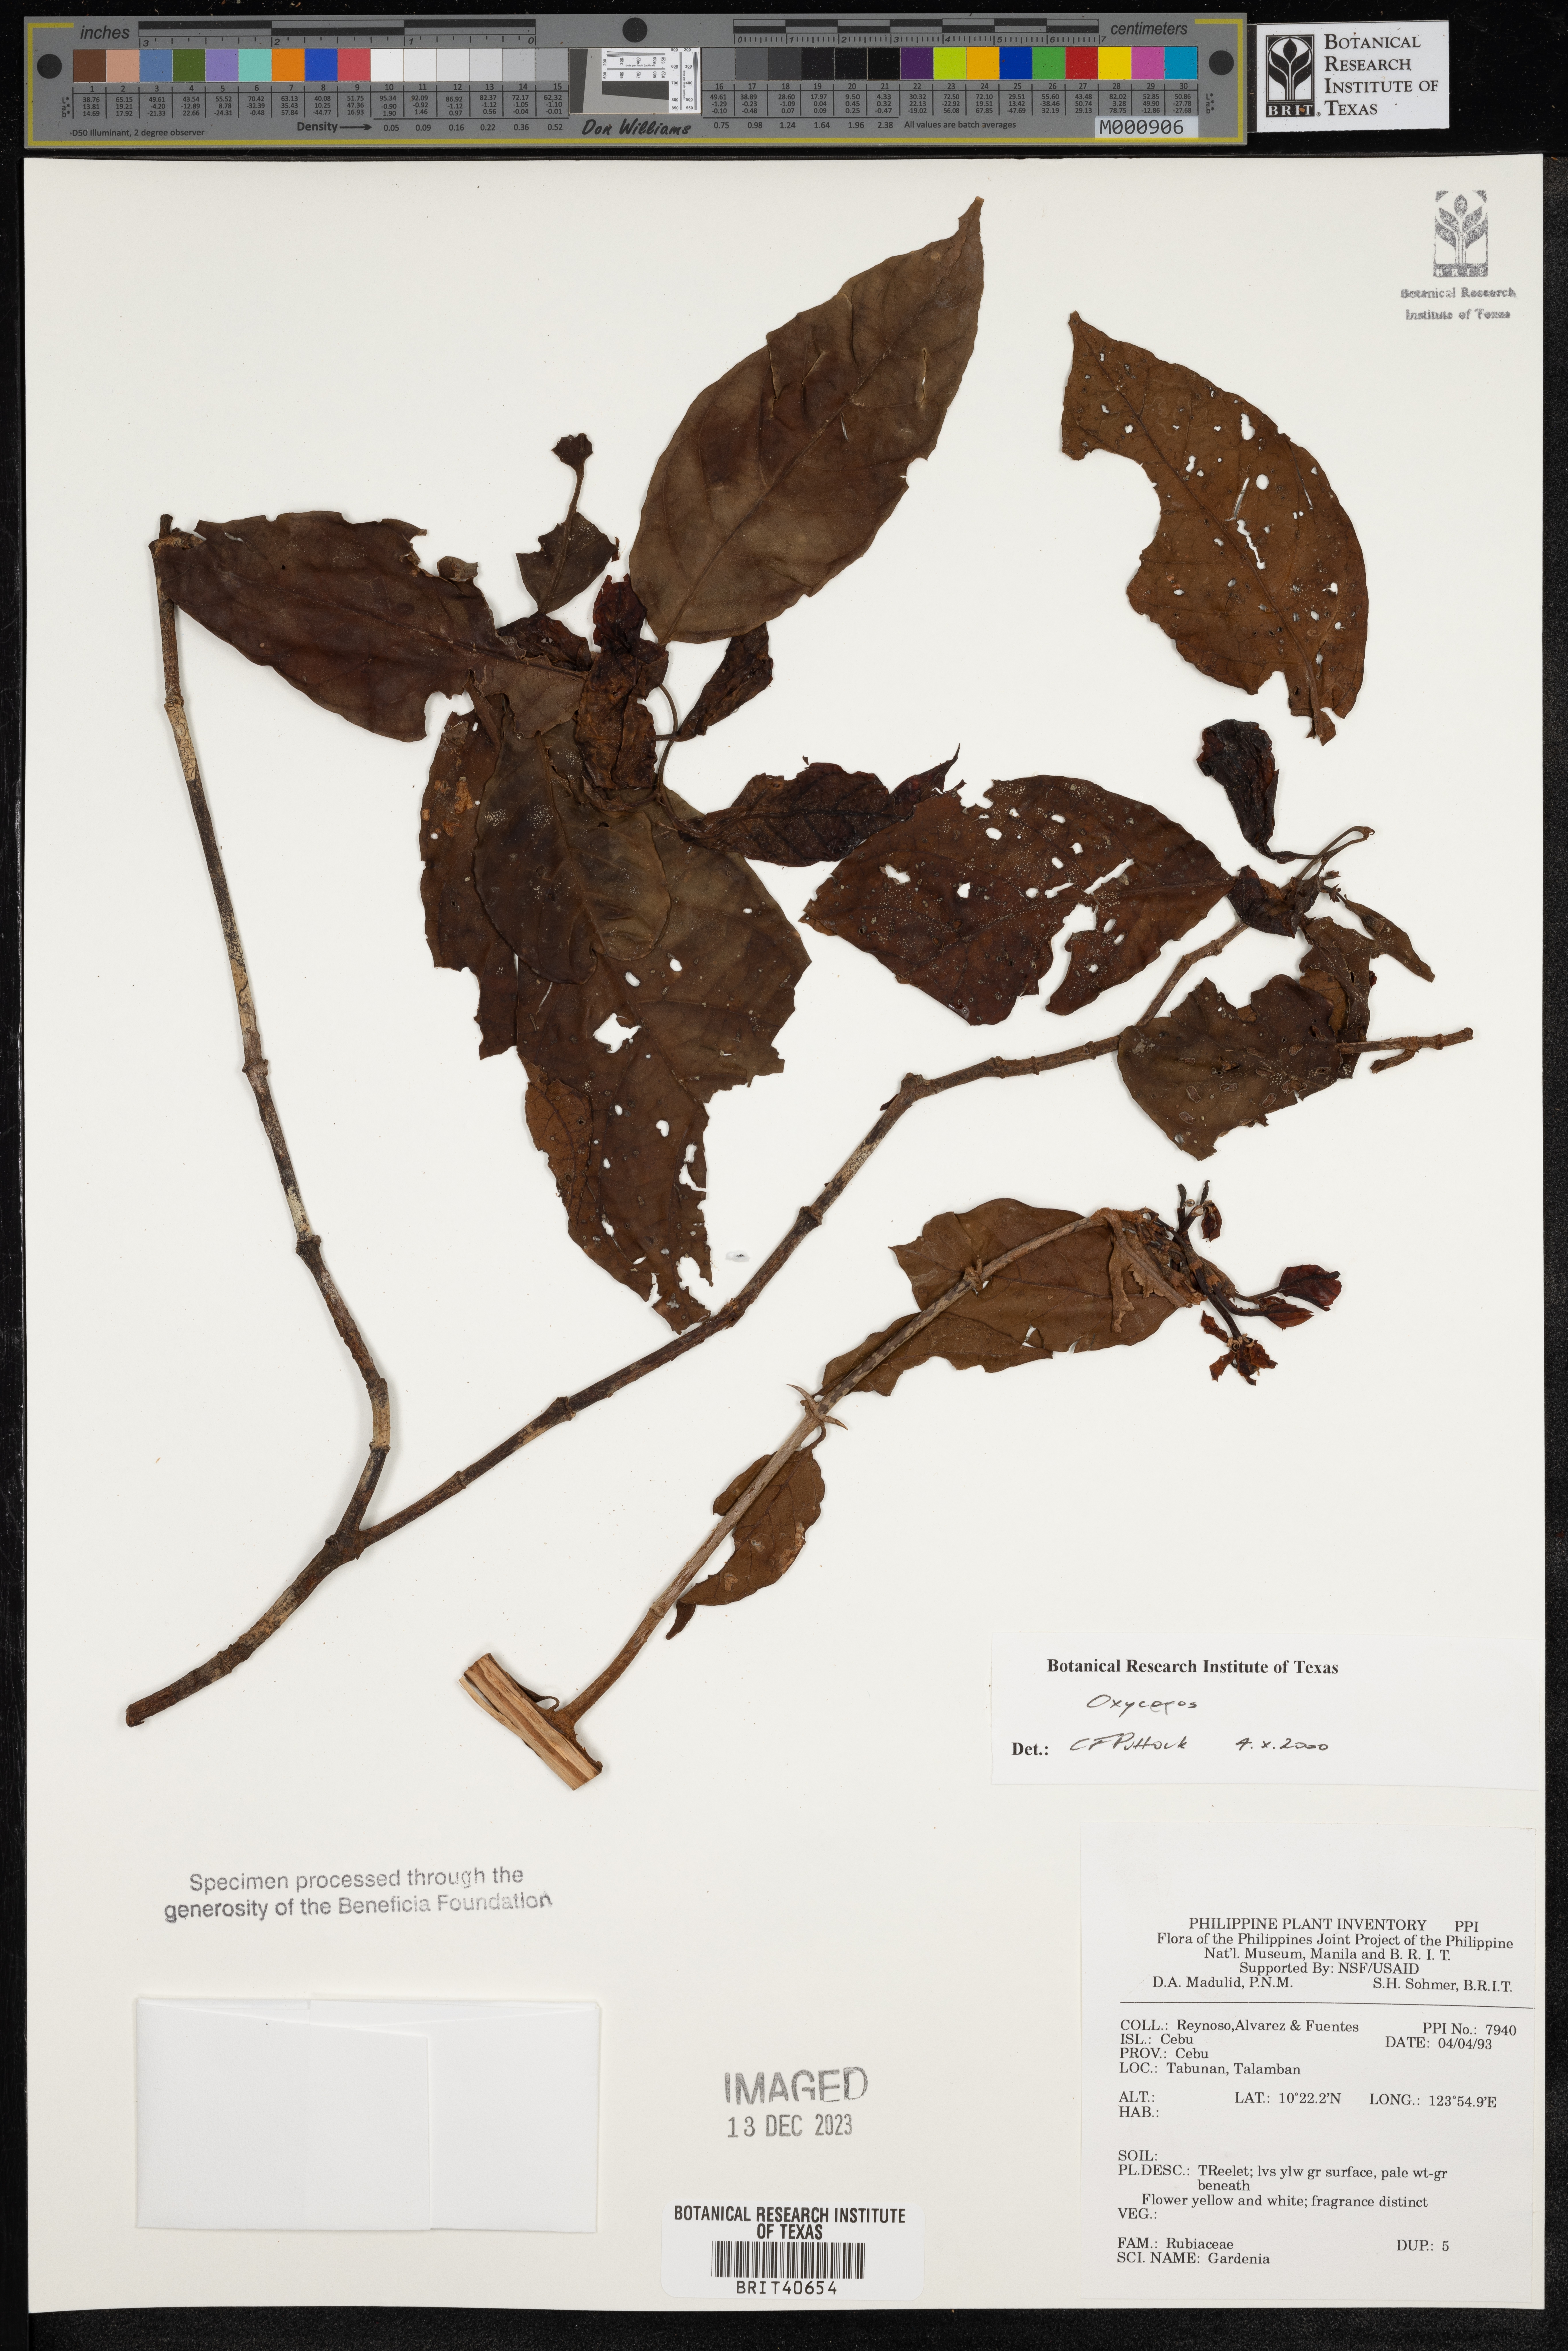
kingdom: Plantae
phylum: Tracheophyta
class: Magnoliopsida
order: Gentianales
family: Rubiaceae
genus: Oxyceros
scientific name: Oxyceros
